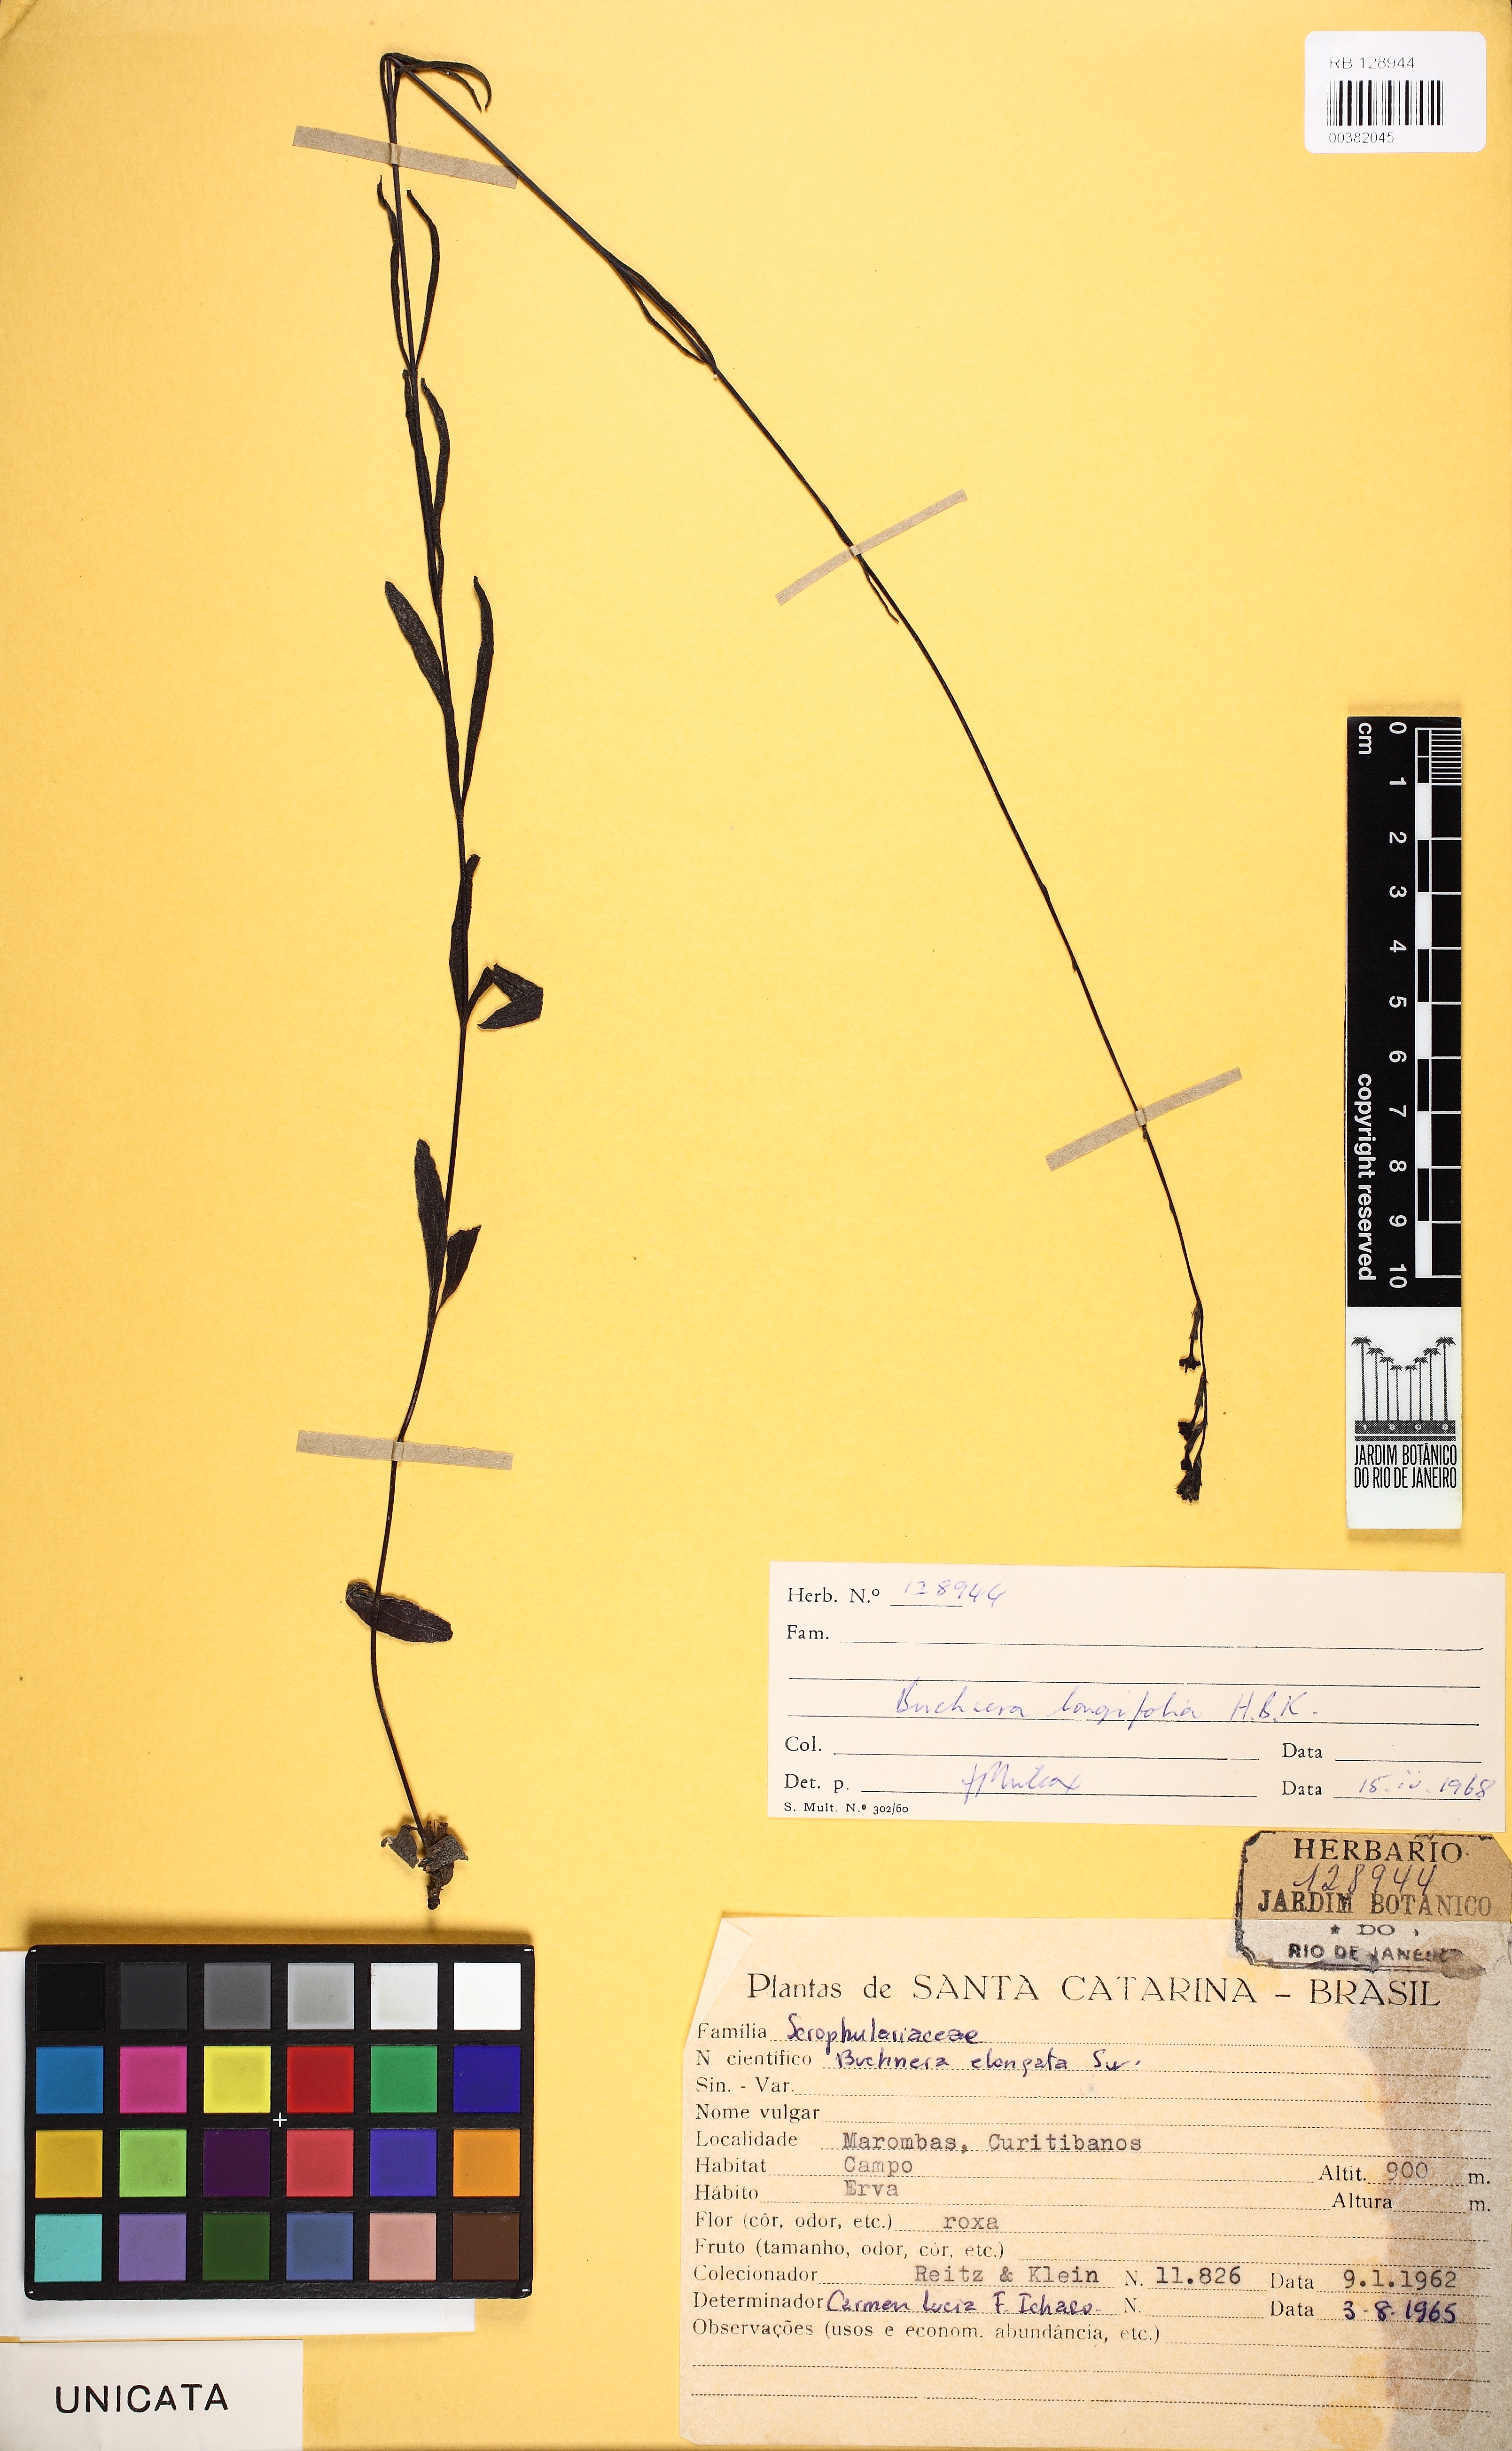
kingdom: Plantae
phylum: Tracheophyta
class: Magnoliopsida
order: Lamiales
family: Orobanchaceae
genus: Buchnera
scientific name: Buchnera longifolia
